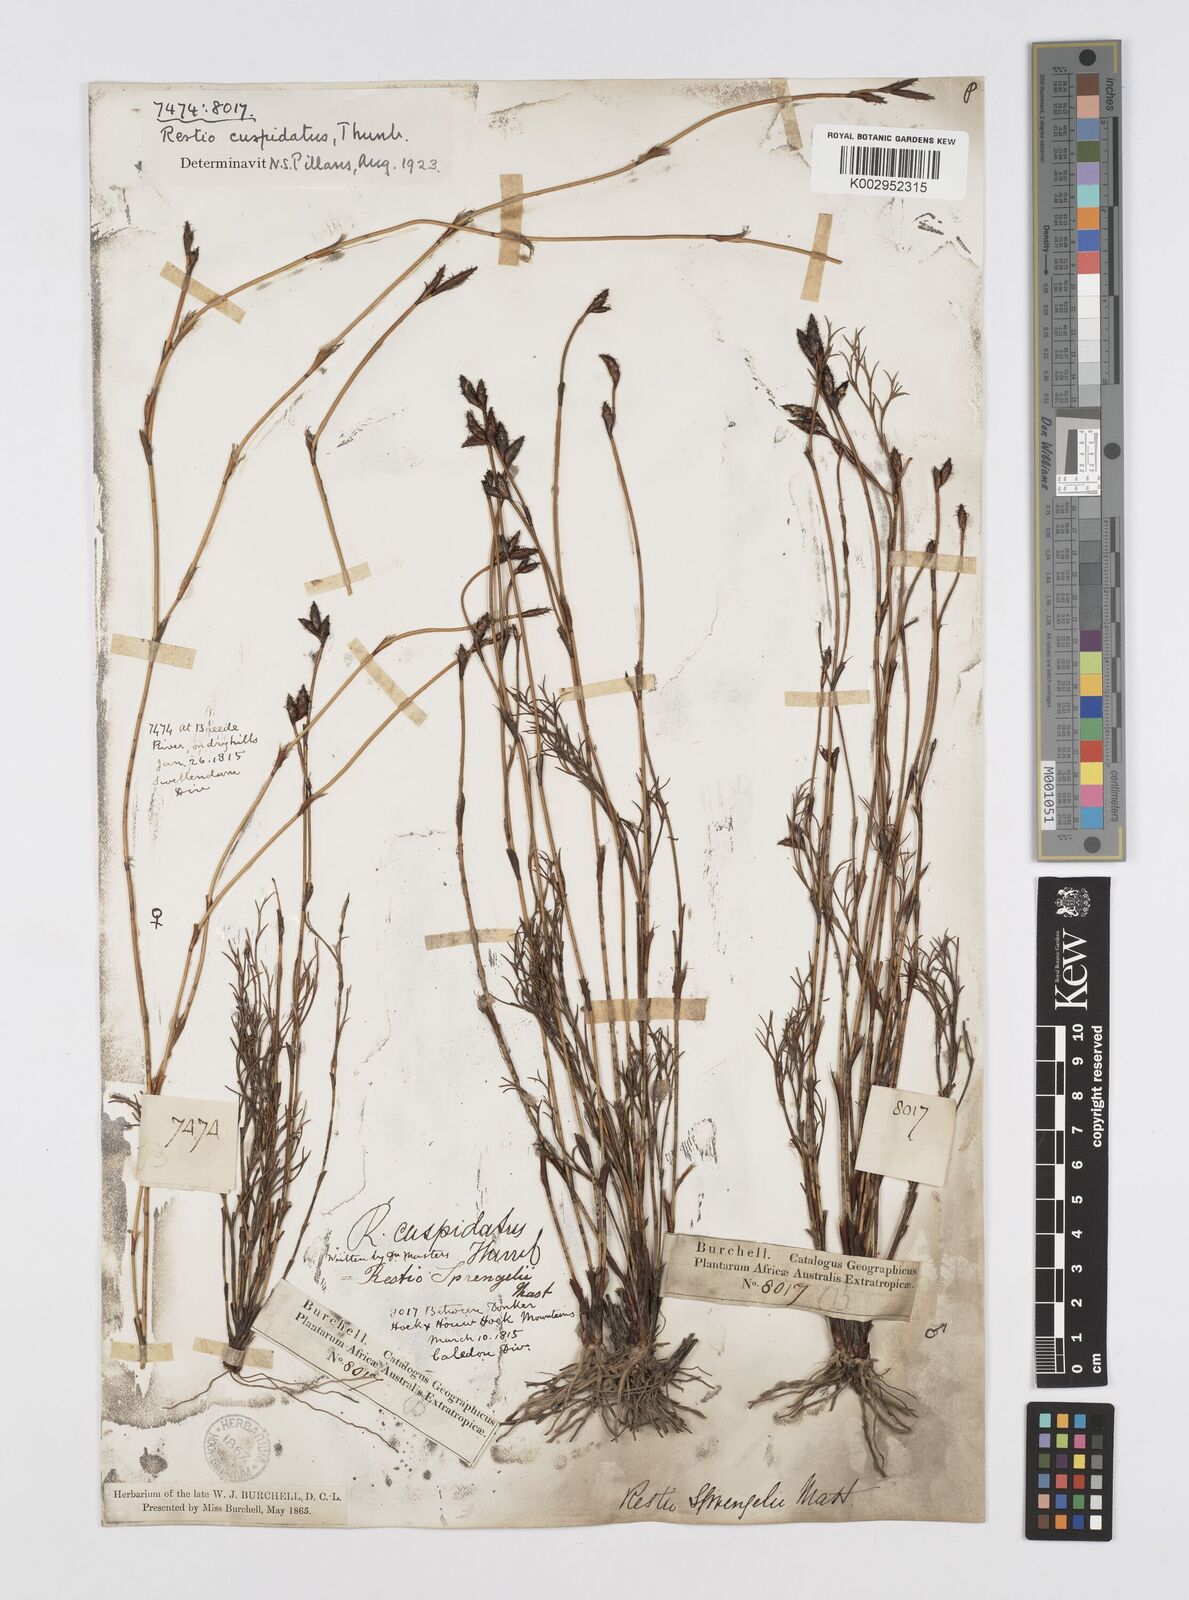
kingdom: Plantae
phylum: Tracheophyta
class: Liliopsida
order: Poales
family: Restionaceae
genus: Restio
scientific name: Restio capensis
